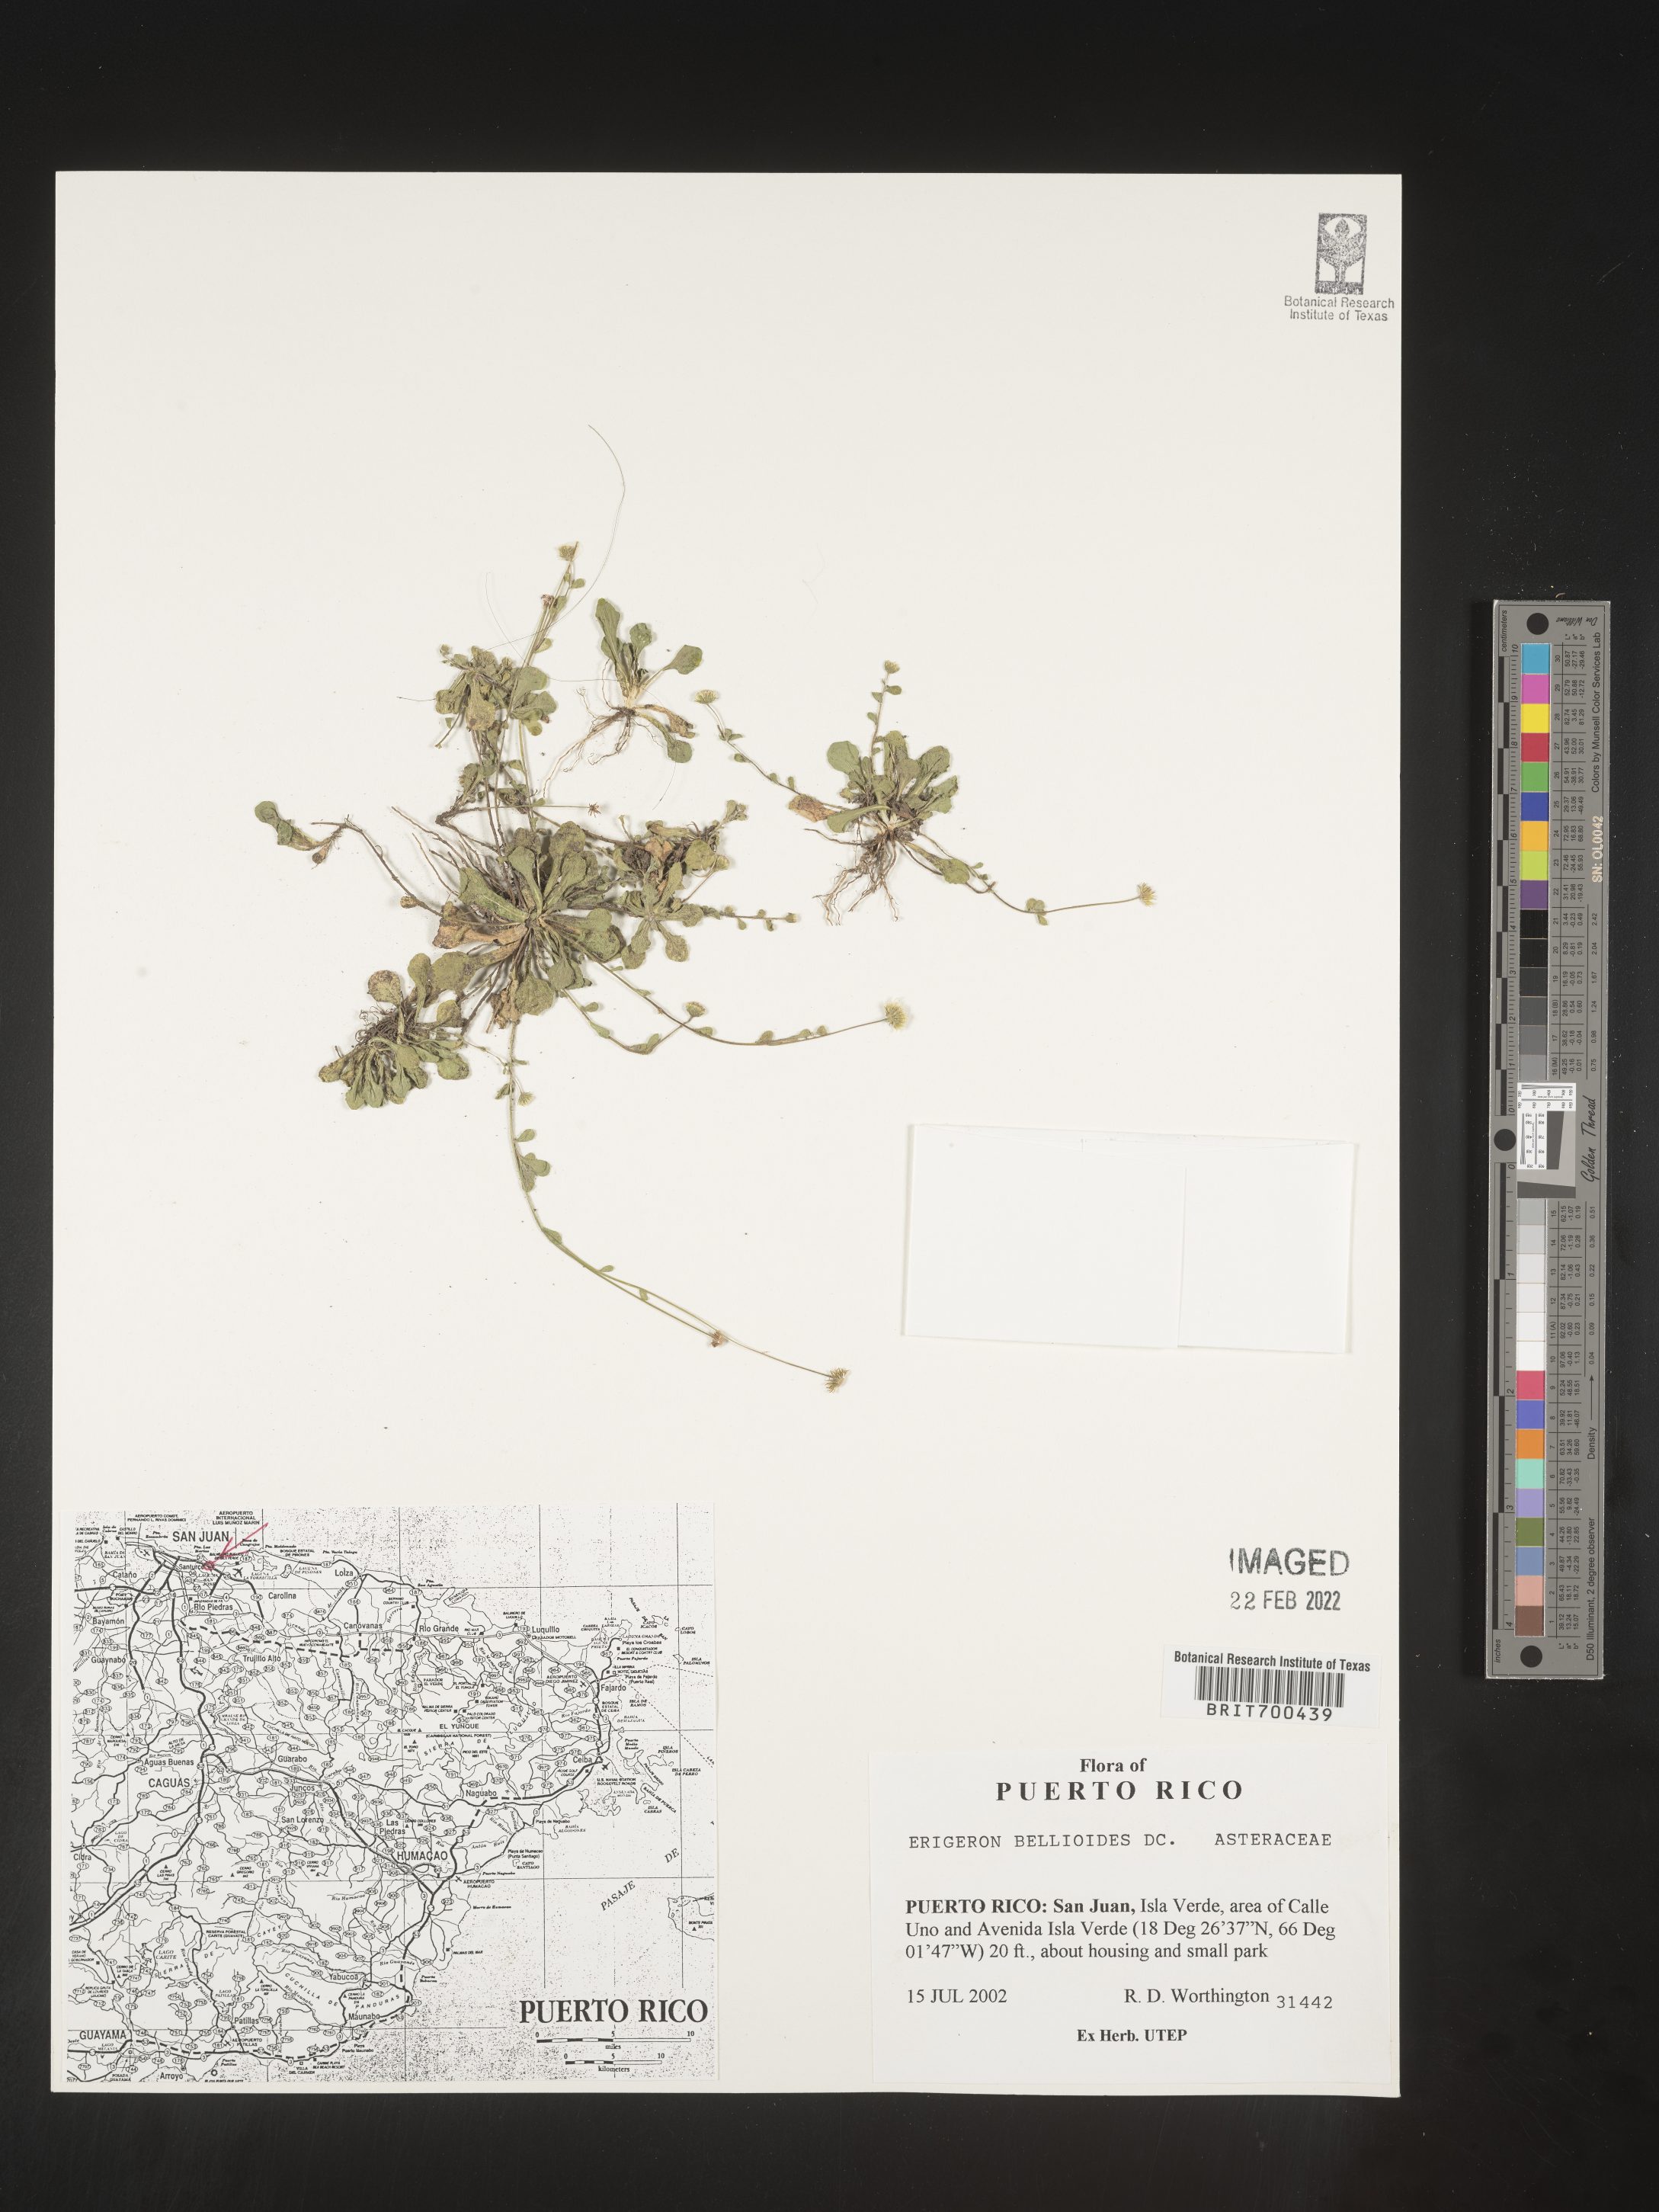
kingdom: Plantae
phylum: Tracheophyta
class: Magnoliopsida
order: Asterales
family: Asteraceae
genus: Erigeron
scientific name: Erigeron
